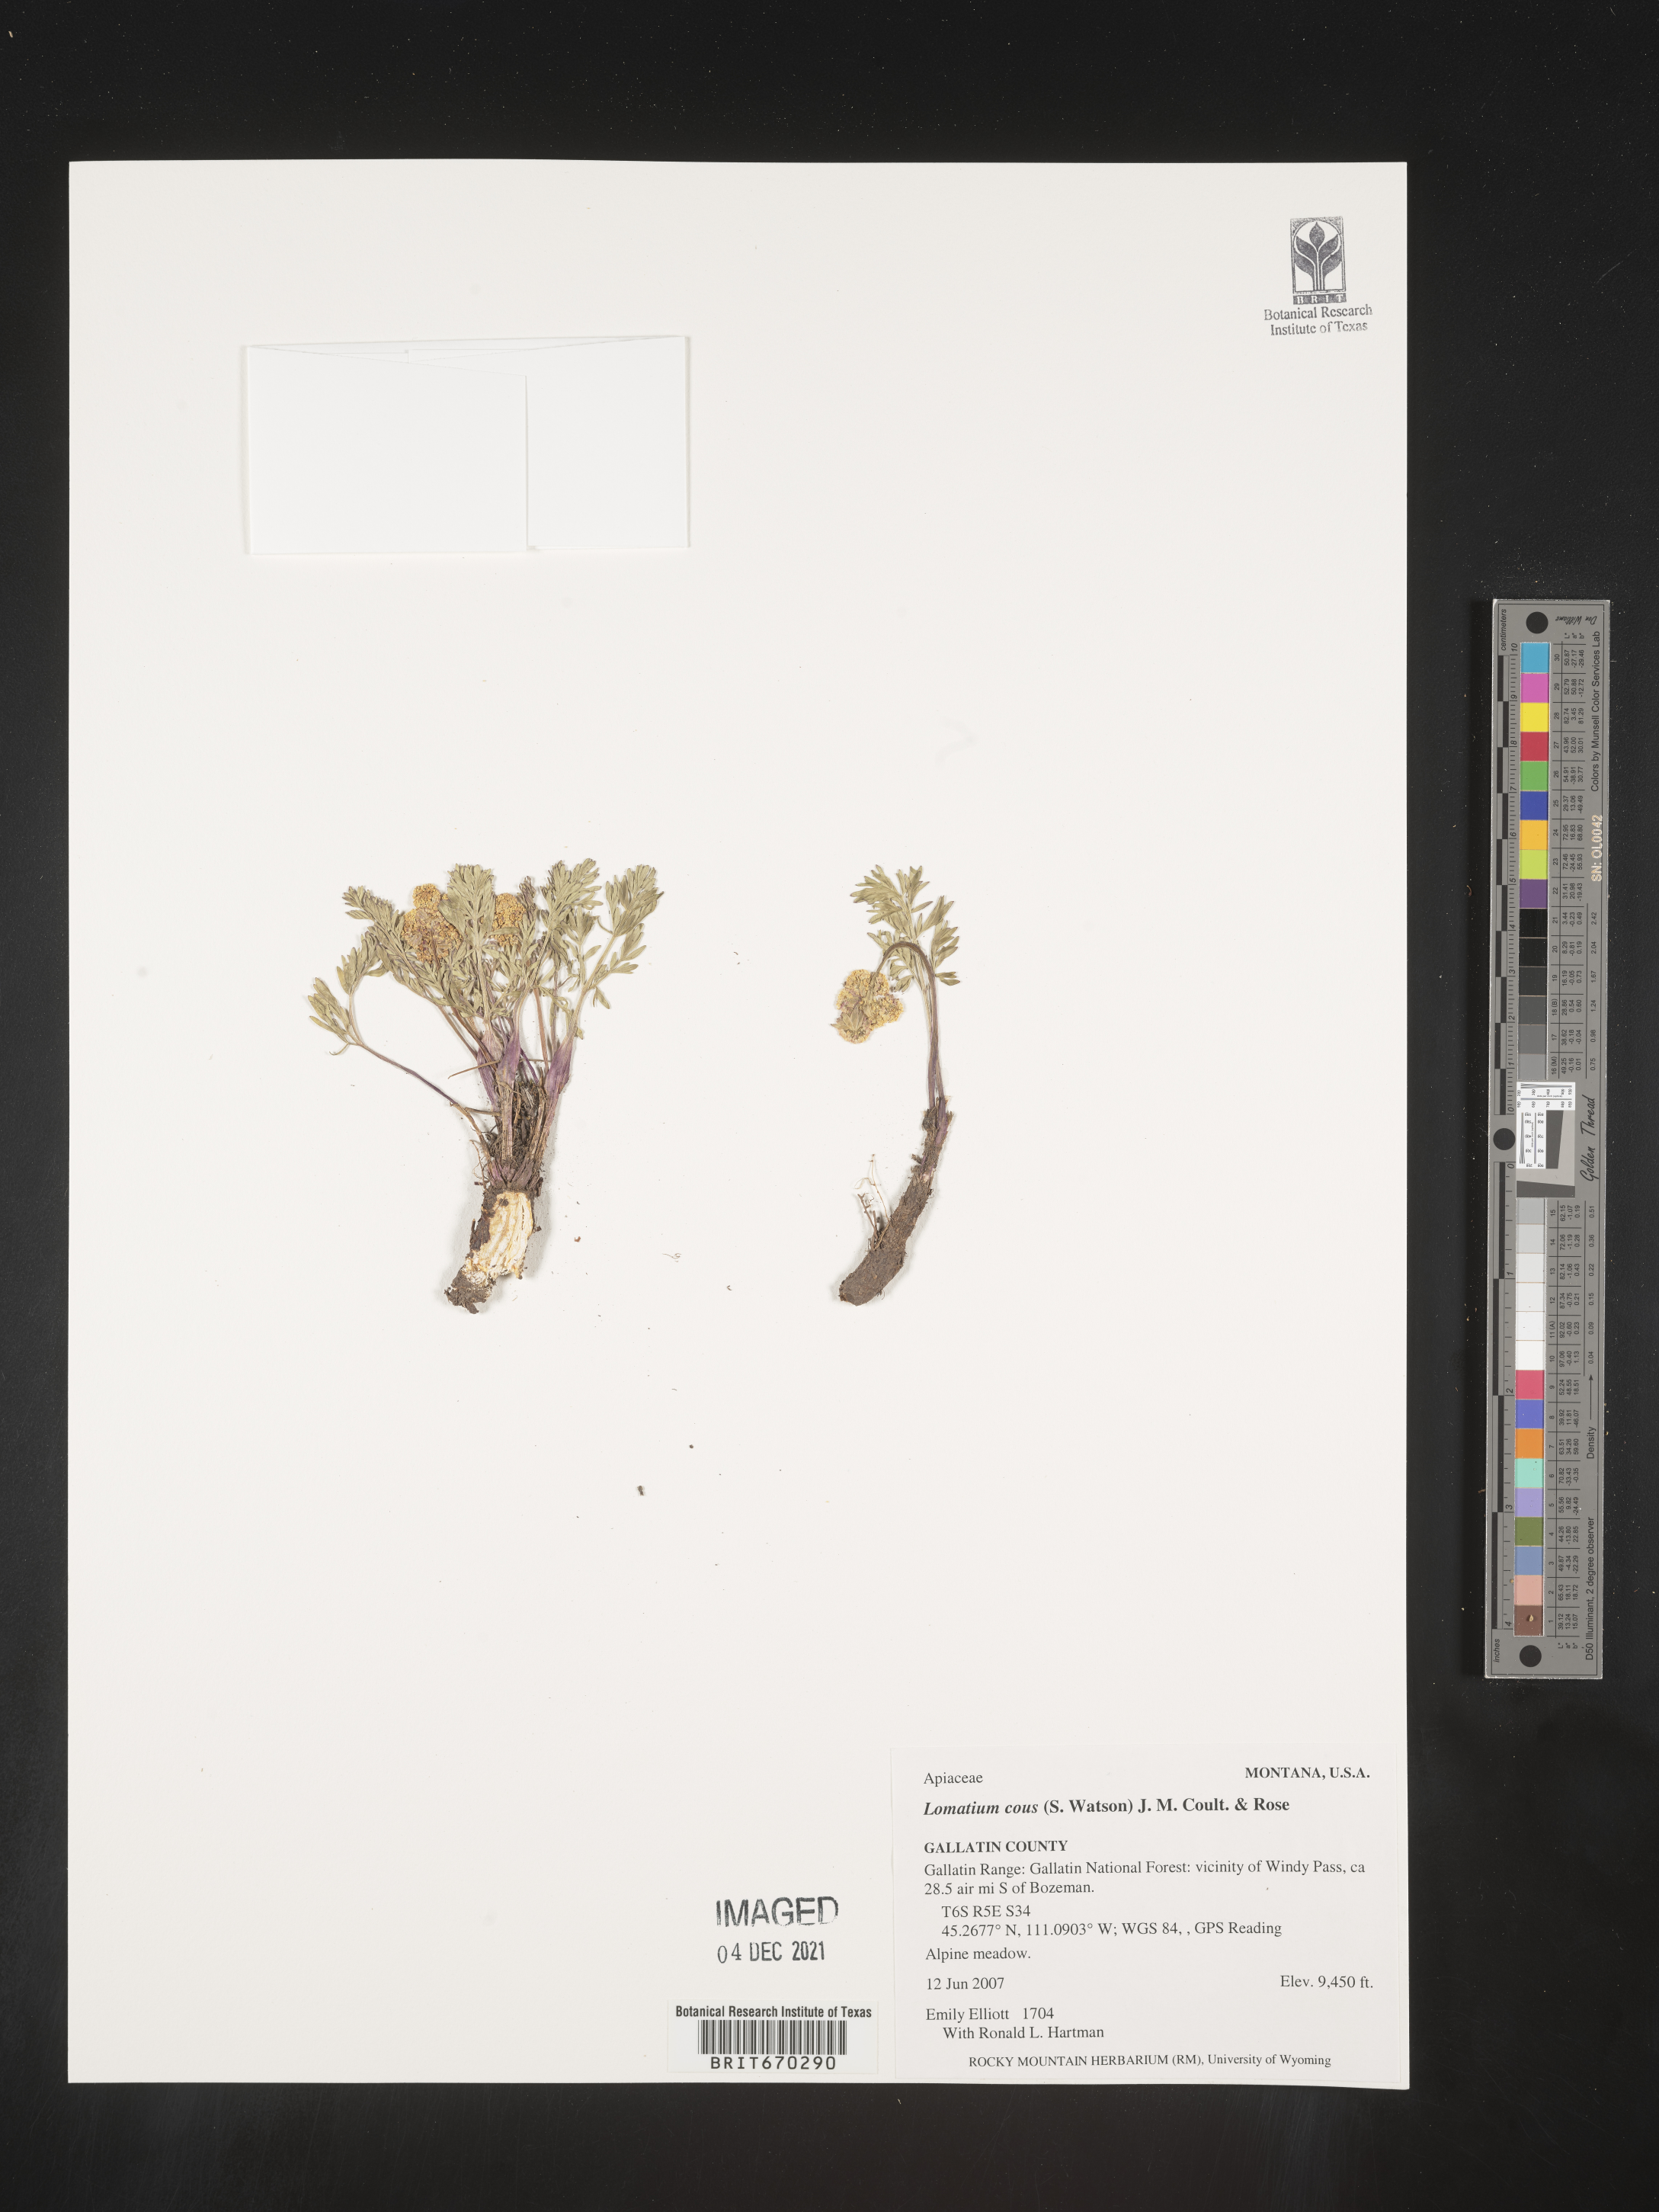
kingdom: Plantae
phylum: Tracheophyta
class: Magnoliopsida
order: Apiales
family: Apiaceae
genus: Lomatium
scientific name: Lomatium cous
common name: Biscuit-root
